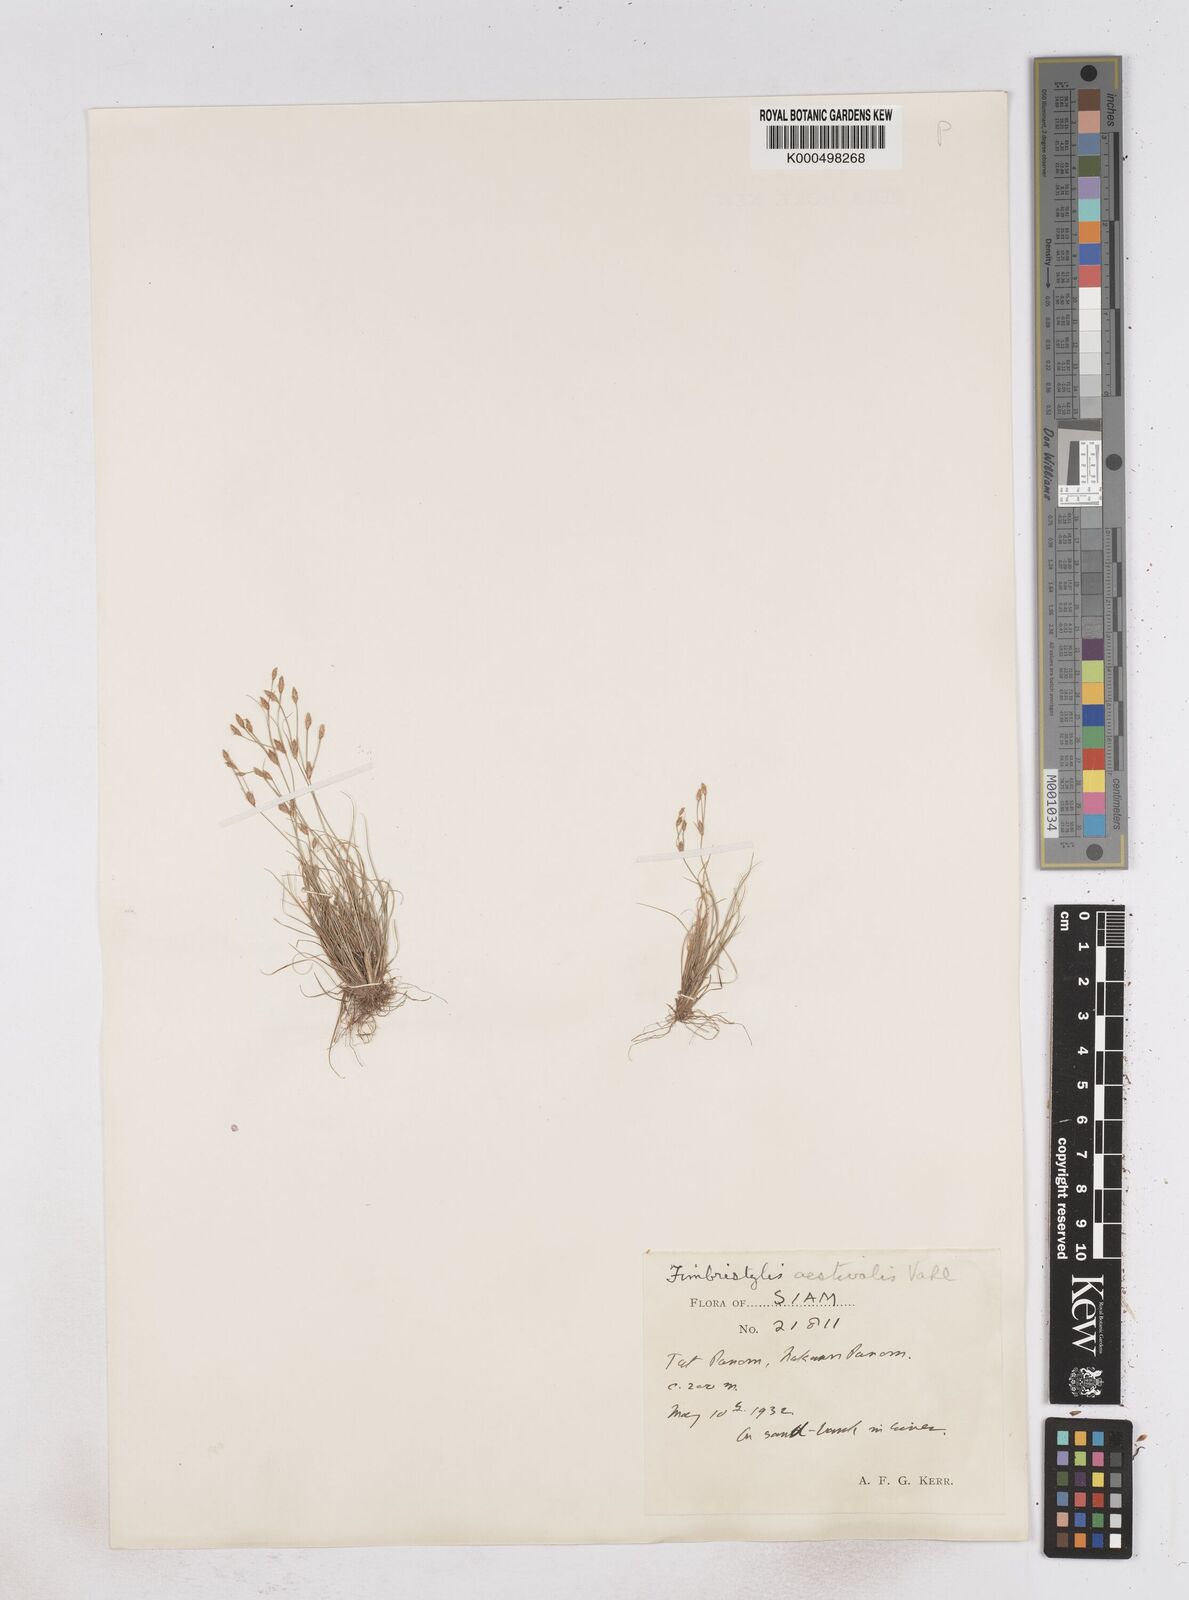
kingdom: Plantae
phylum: Tracheophyta
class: Liliopsida
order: Poales
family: Cyperaceae
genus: Fimbristylis
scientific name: Fimbristylis griffithii
